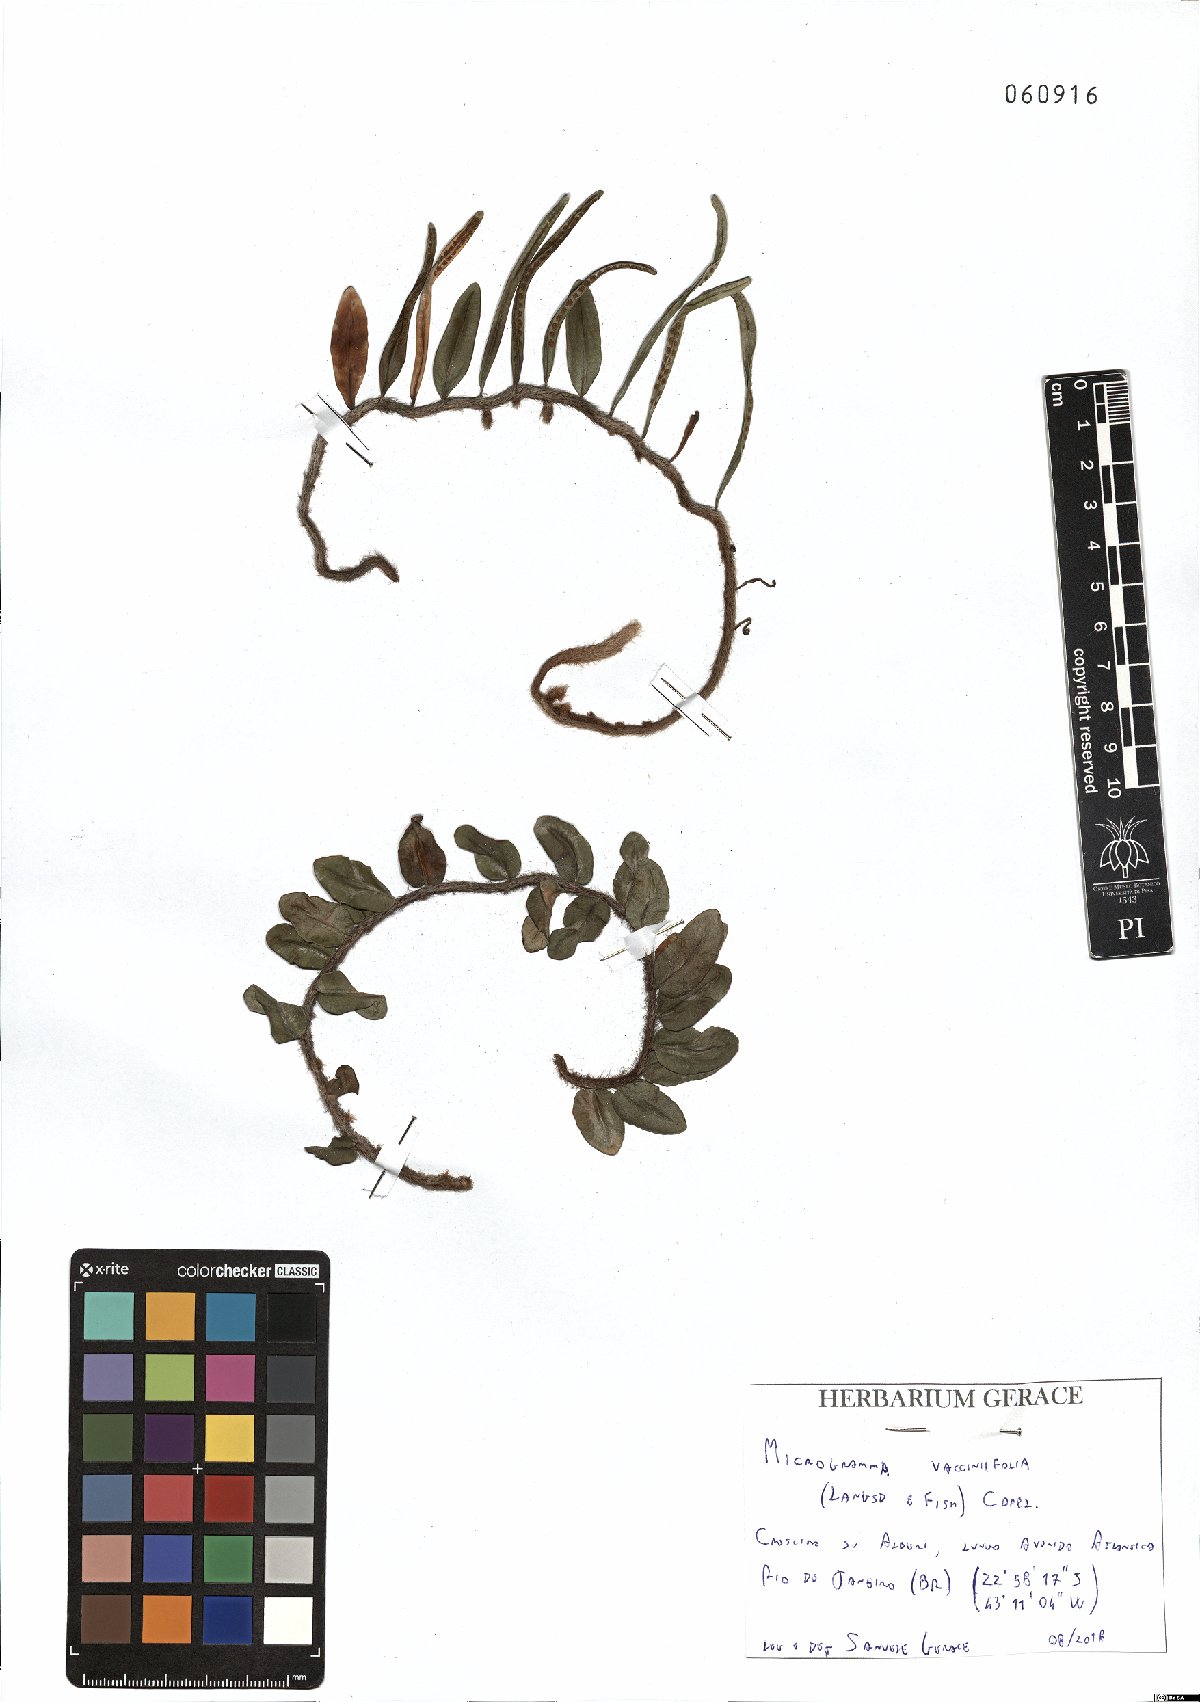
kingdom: Plantae
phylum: Tracheophyta
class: Polypodiopsida
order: Polypodiales
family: Polypodiaceae
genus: Microgramma
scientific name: Microgramma vaccinifolia
